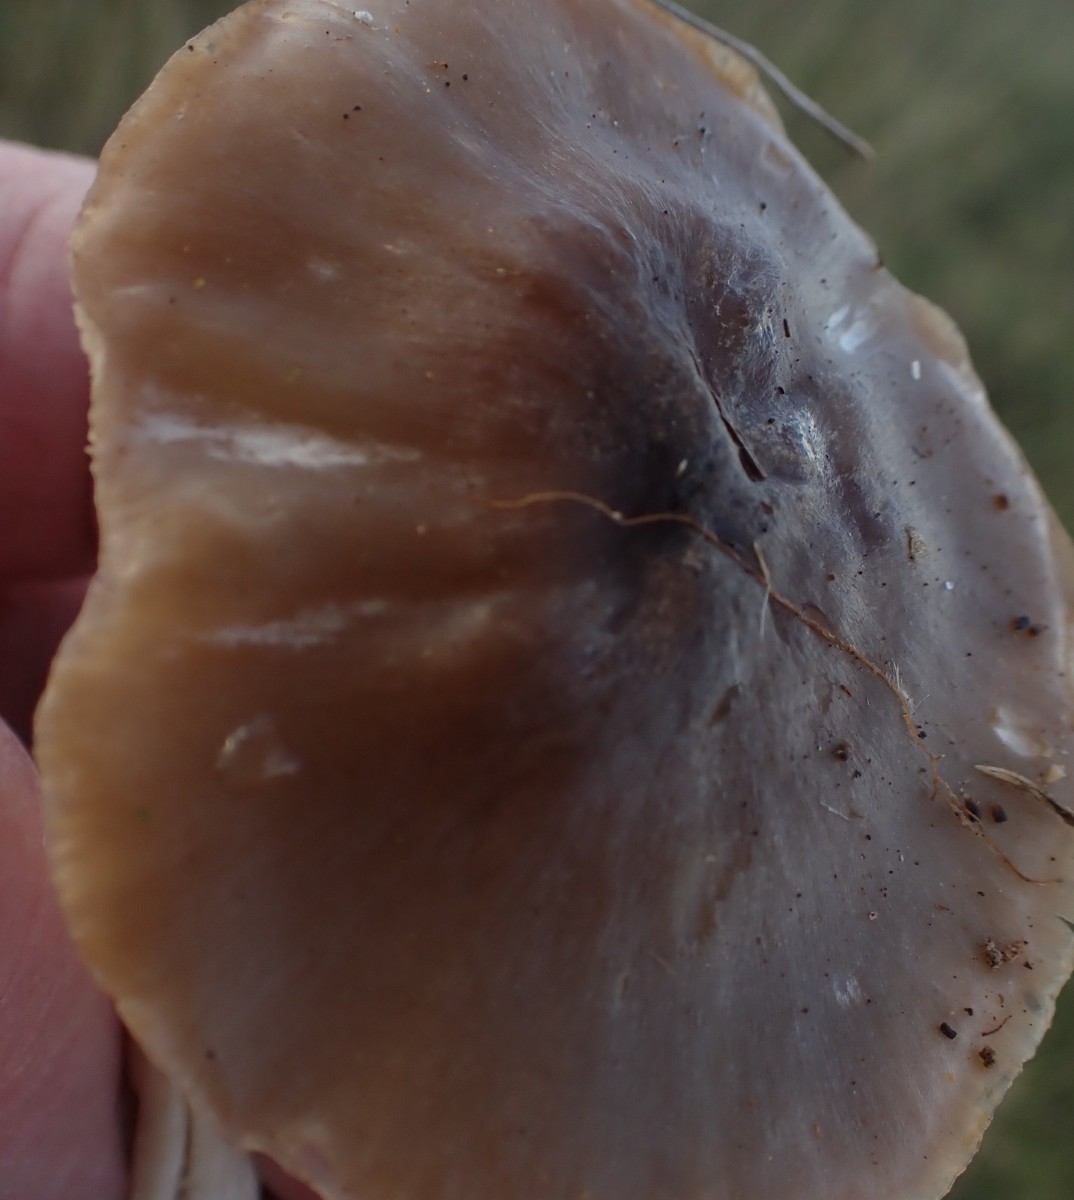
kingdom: Fungi
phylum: Basidiomycota
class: Agaricomycetes
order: Agaricales
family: Hygrophoraceae
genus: Cuphophyllus
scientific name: Cuphophyllus fornicatus
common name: gråbrun vokshat
